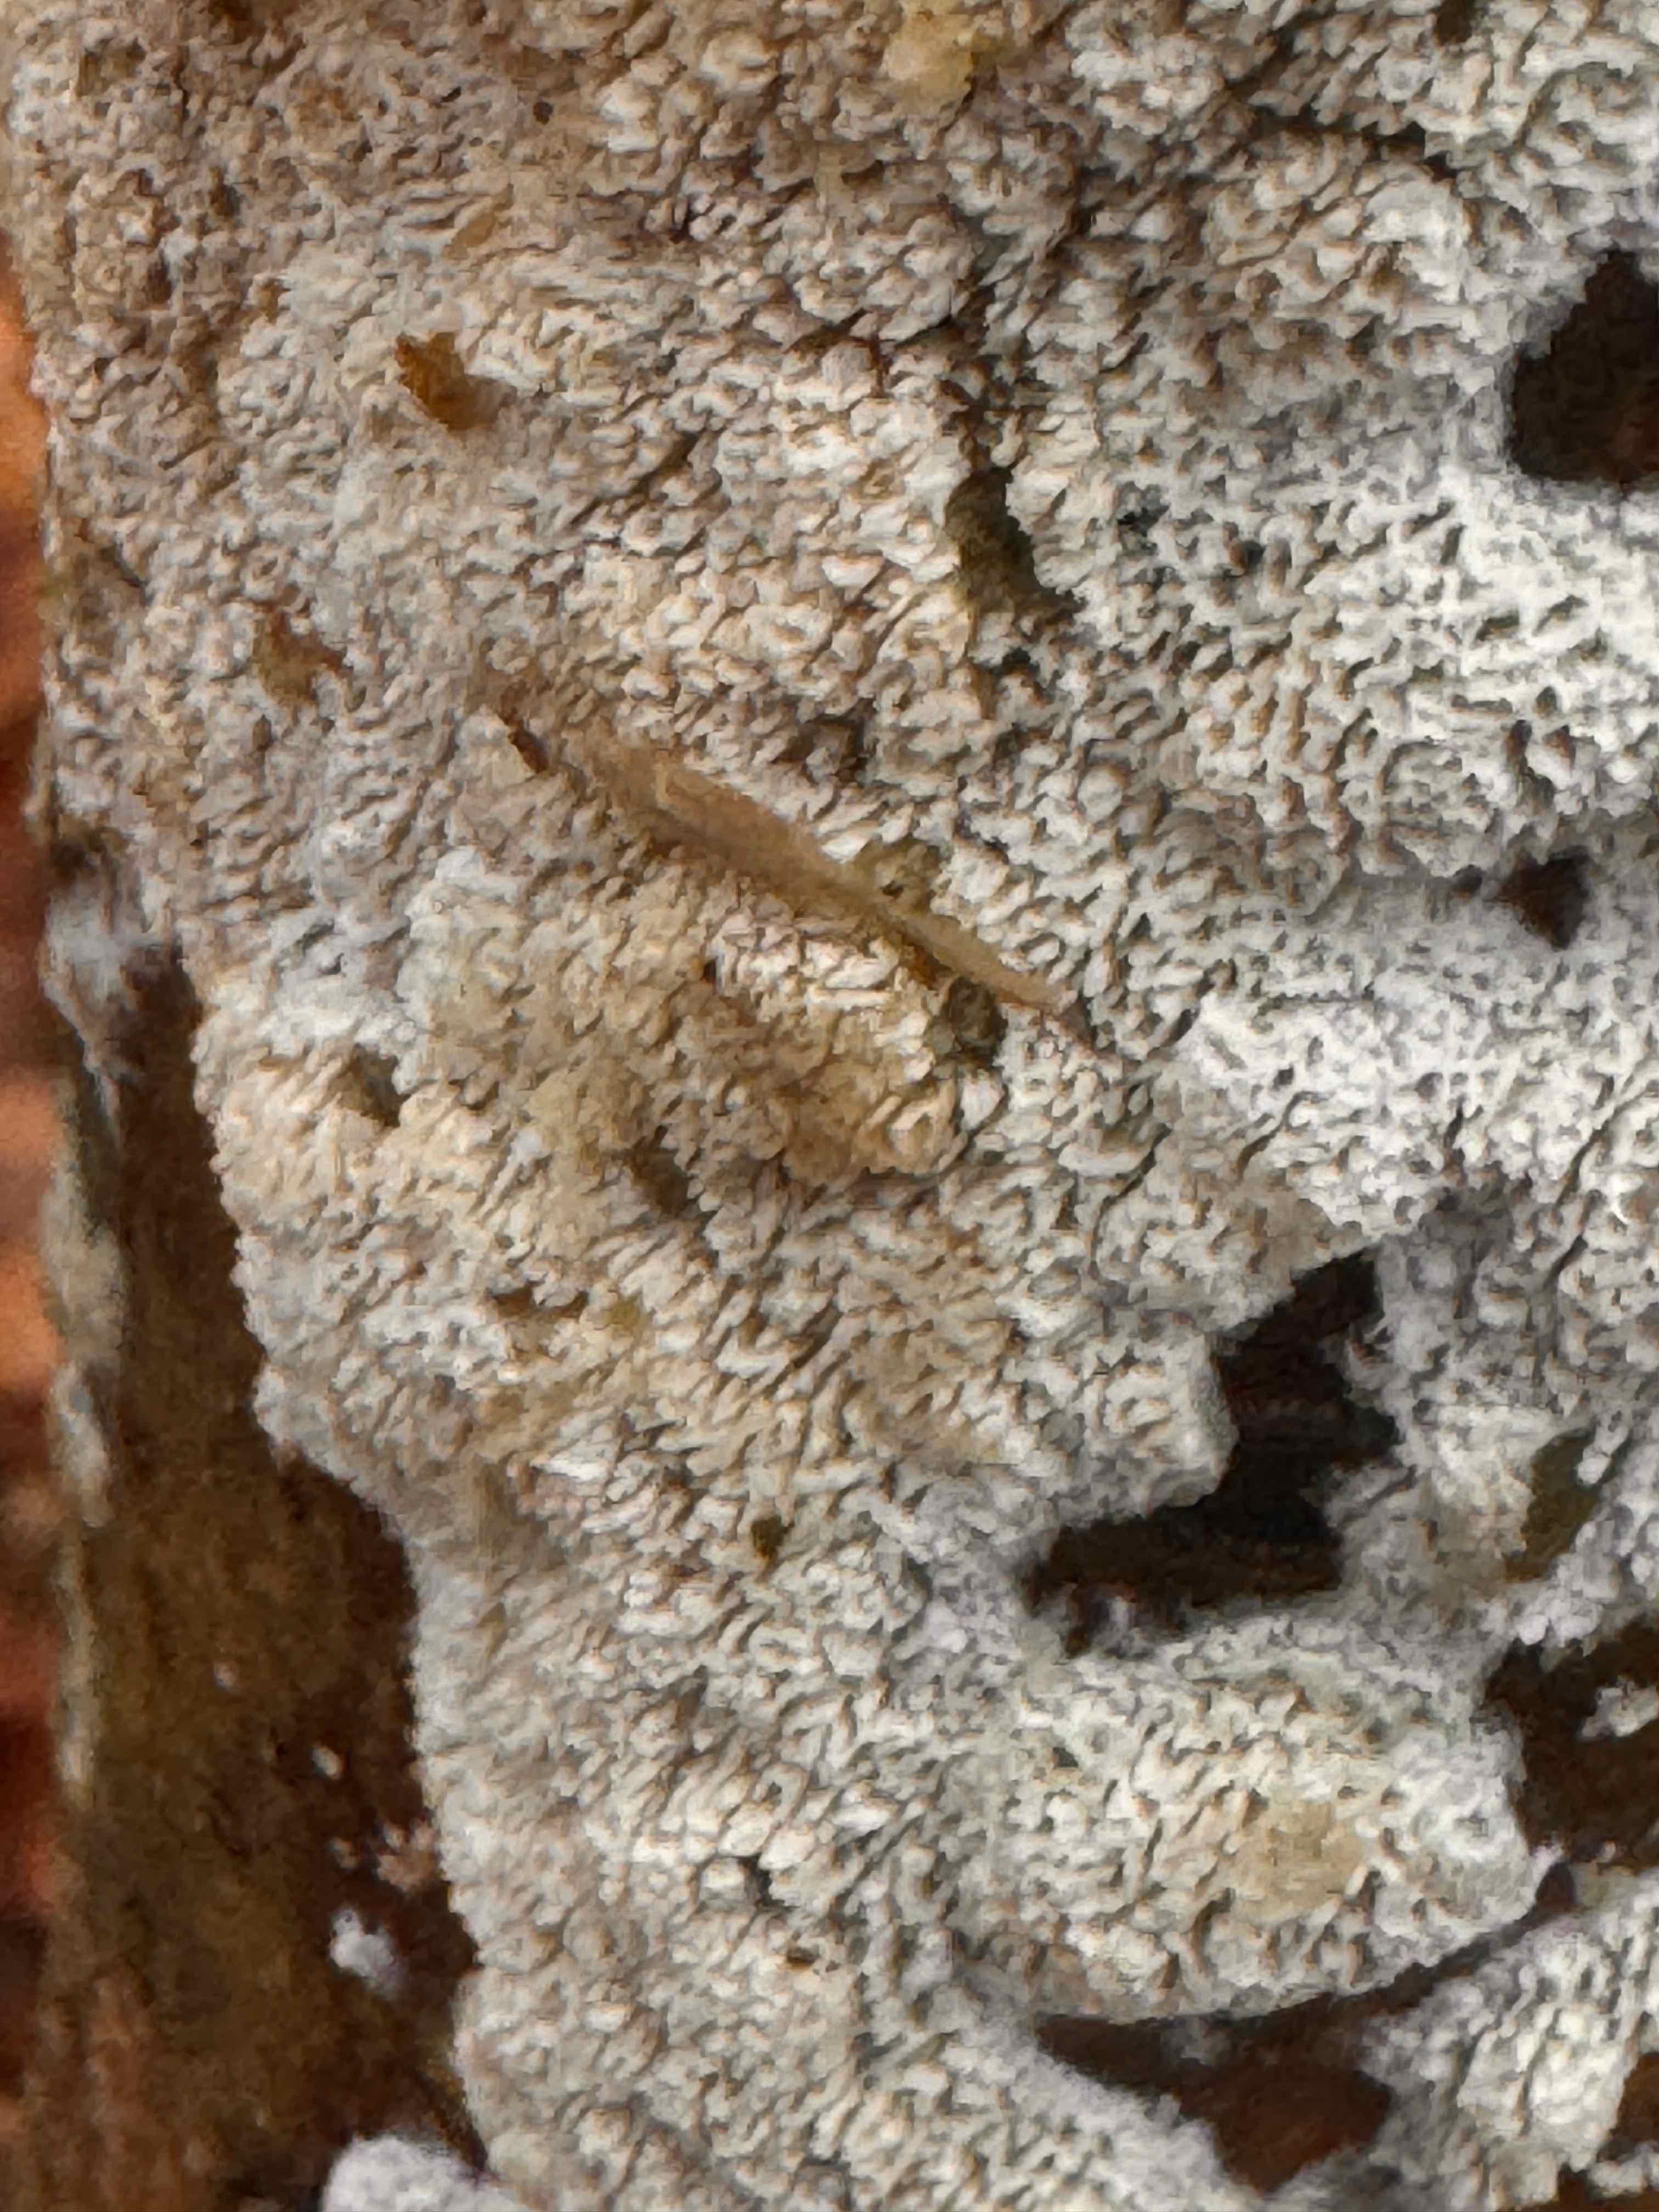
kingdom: Fungi
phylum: Basidiomycota
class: Agaricomycetes
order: Hymenochaetales
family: Schizoporaceae
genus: Schizopora
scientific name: Schizopora paradoxa
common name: hvid tandsvamp
